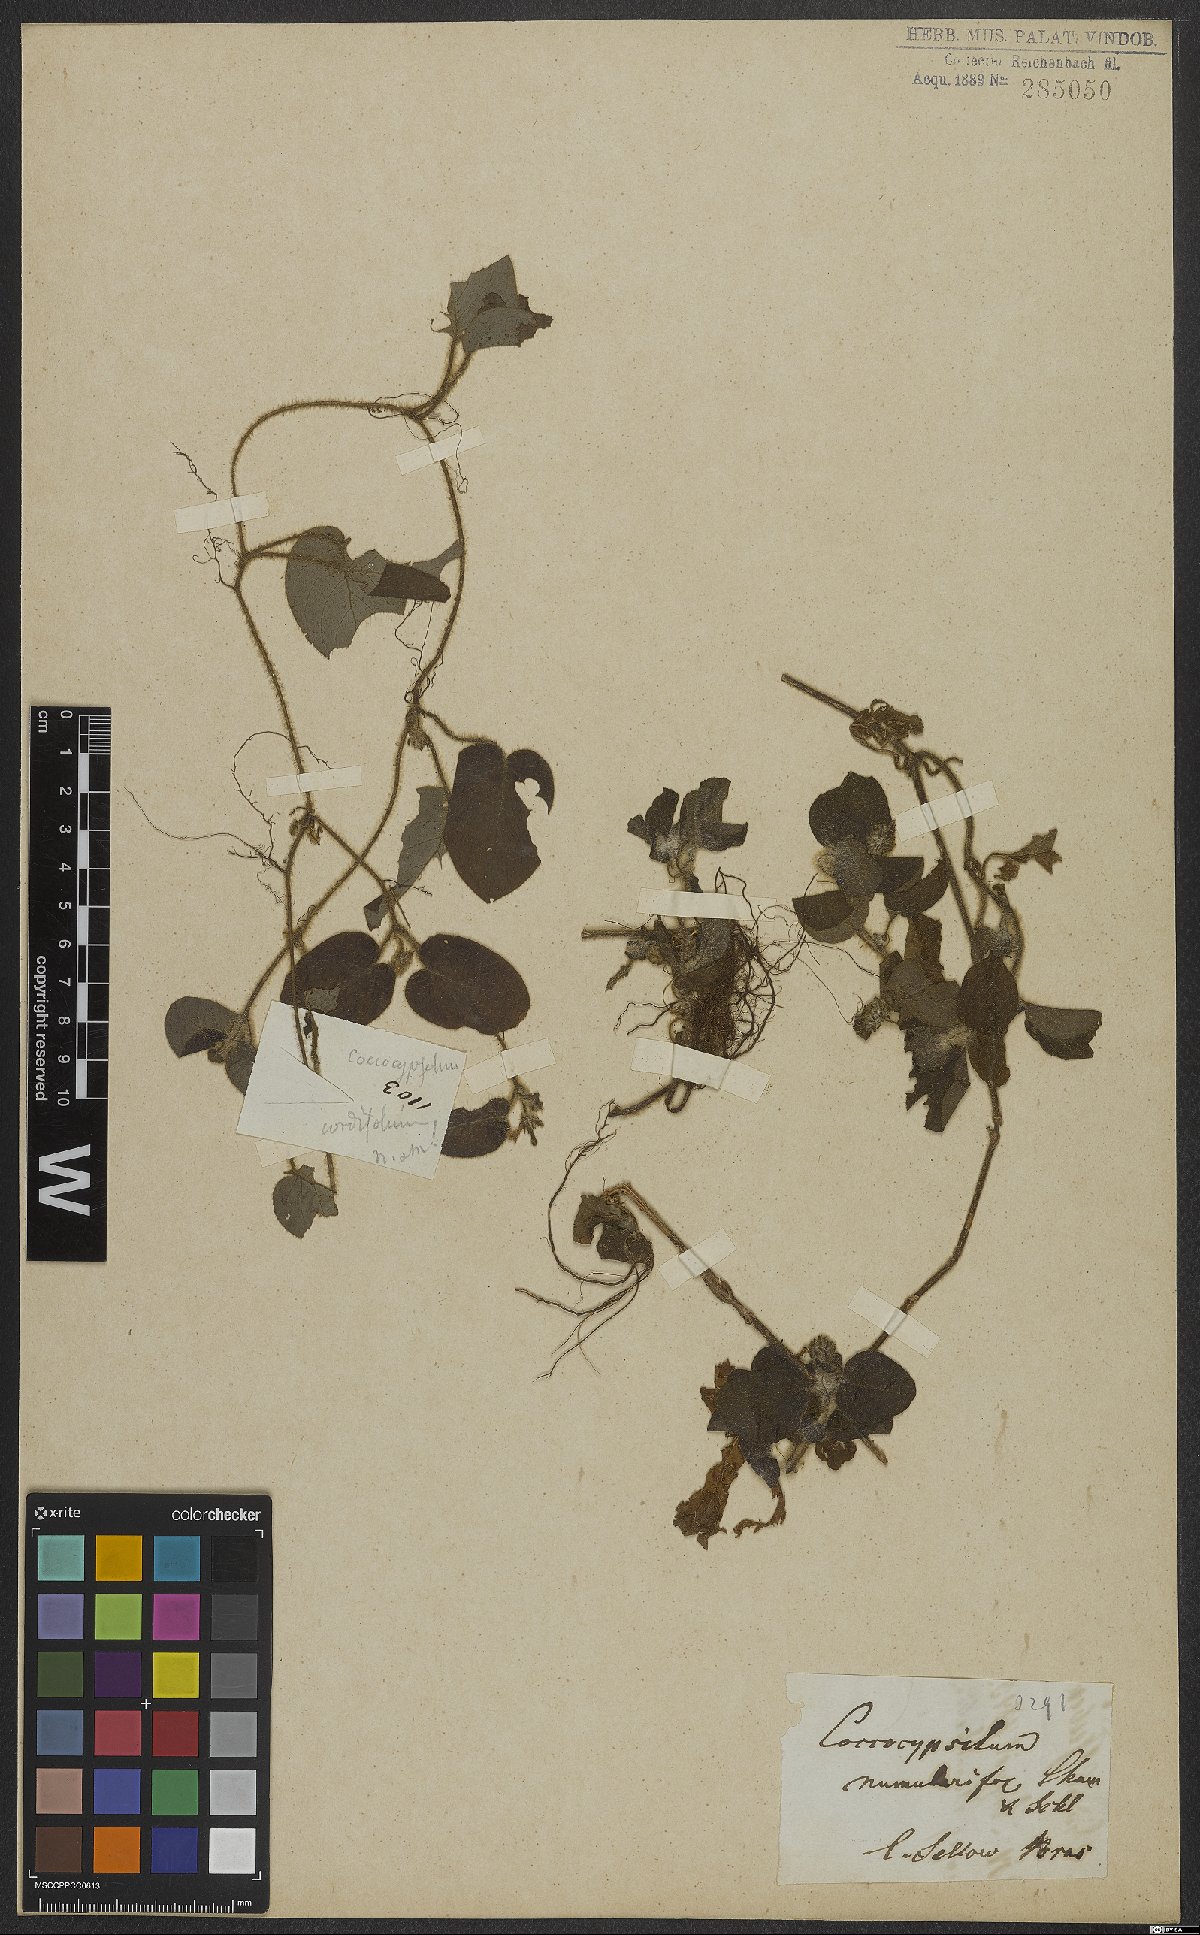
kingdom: Plantae
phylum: Tracheophyta
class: Magnoliopsida
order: Gentianales
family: Rubiaceae
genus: Coccocypselum
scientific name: Coccocypselum cordifolium
